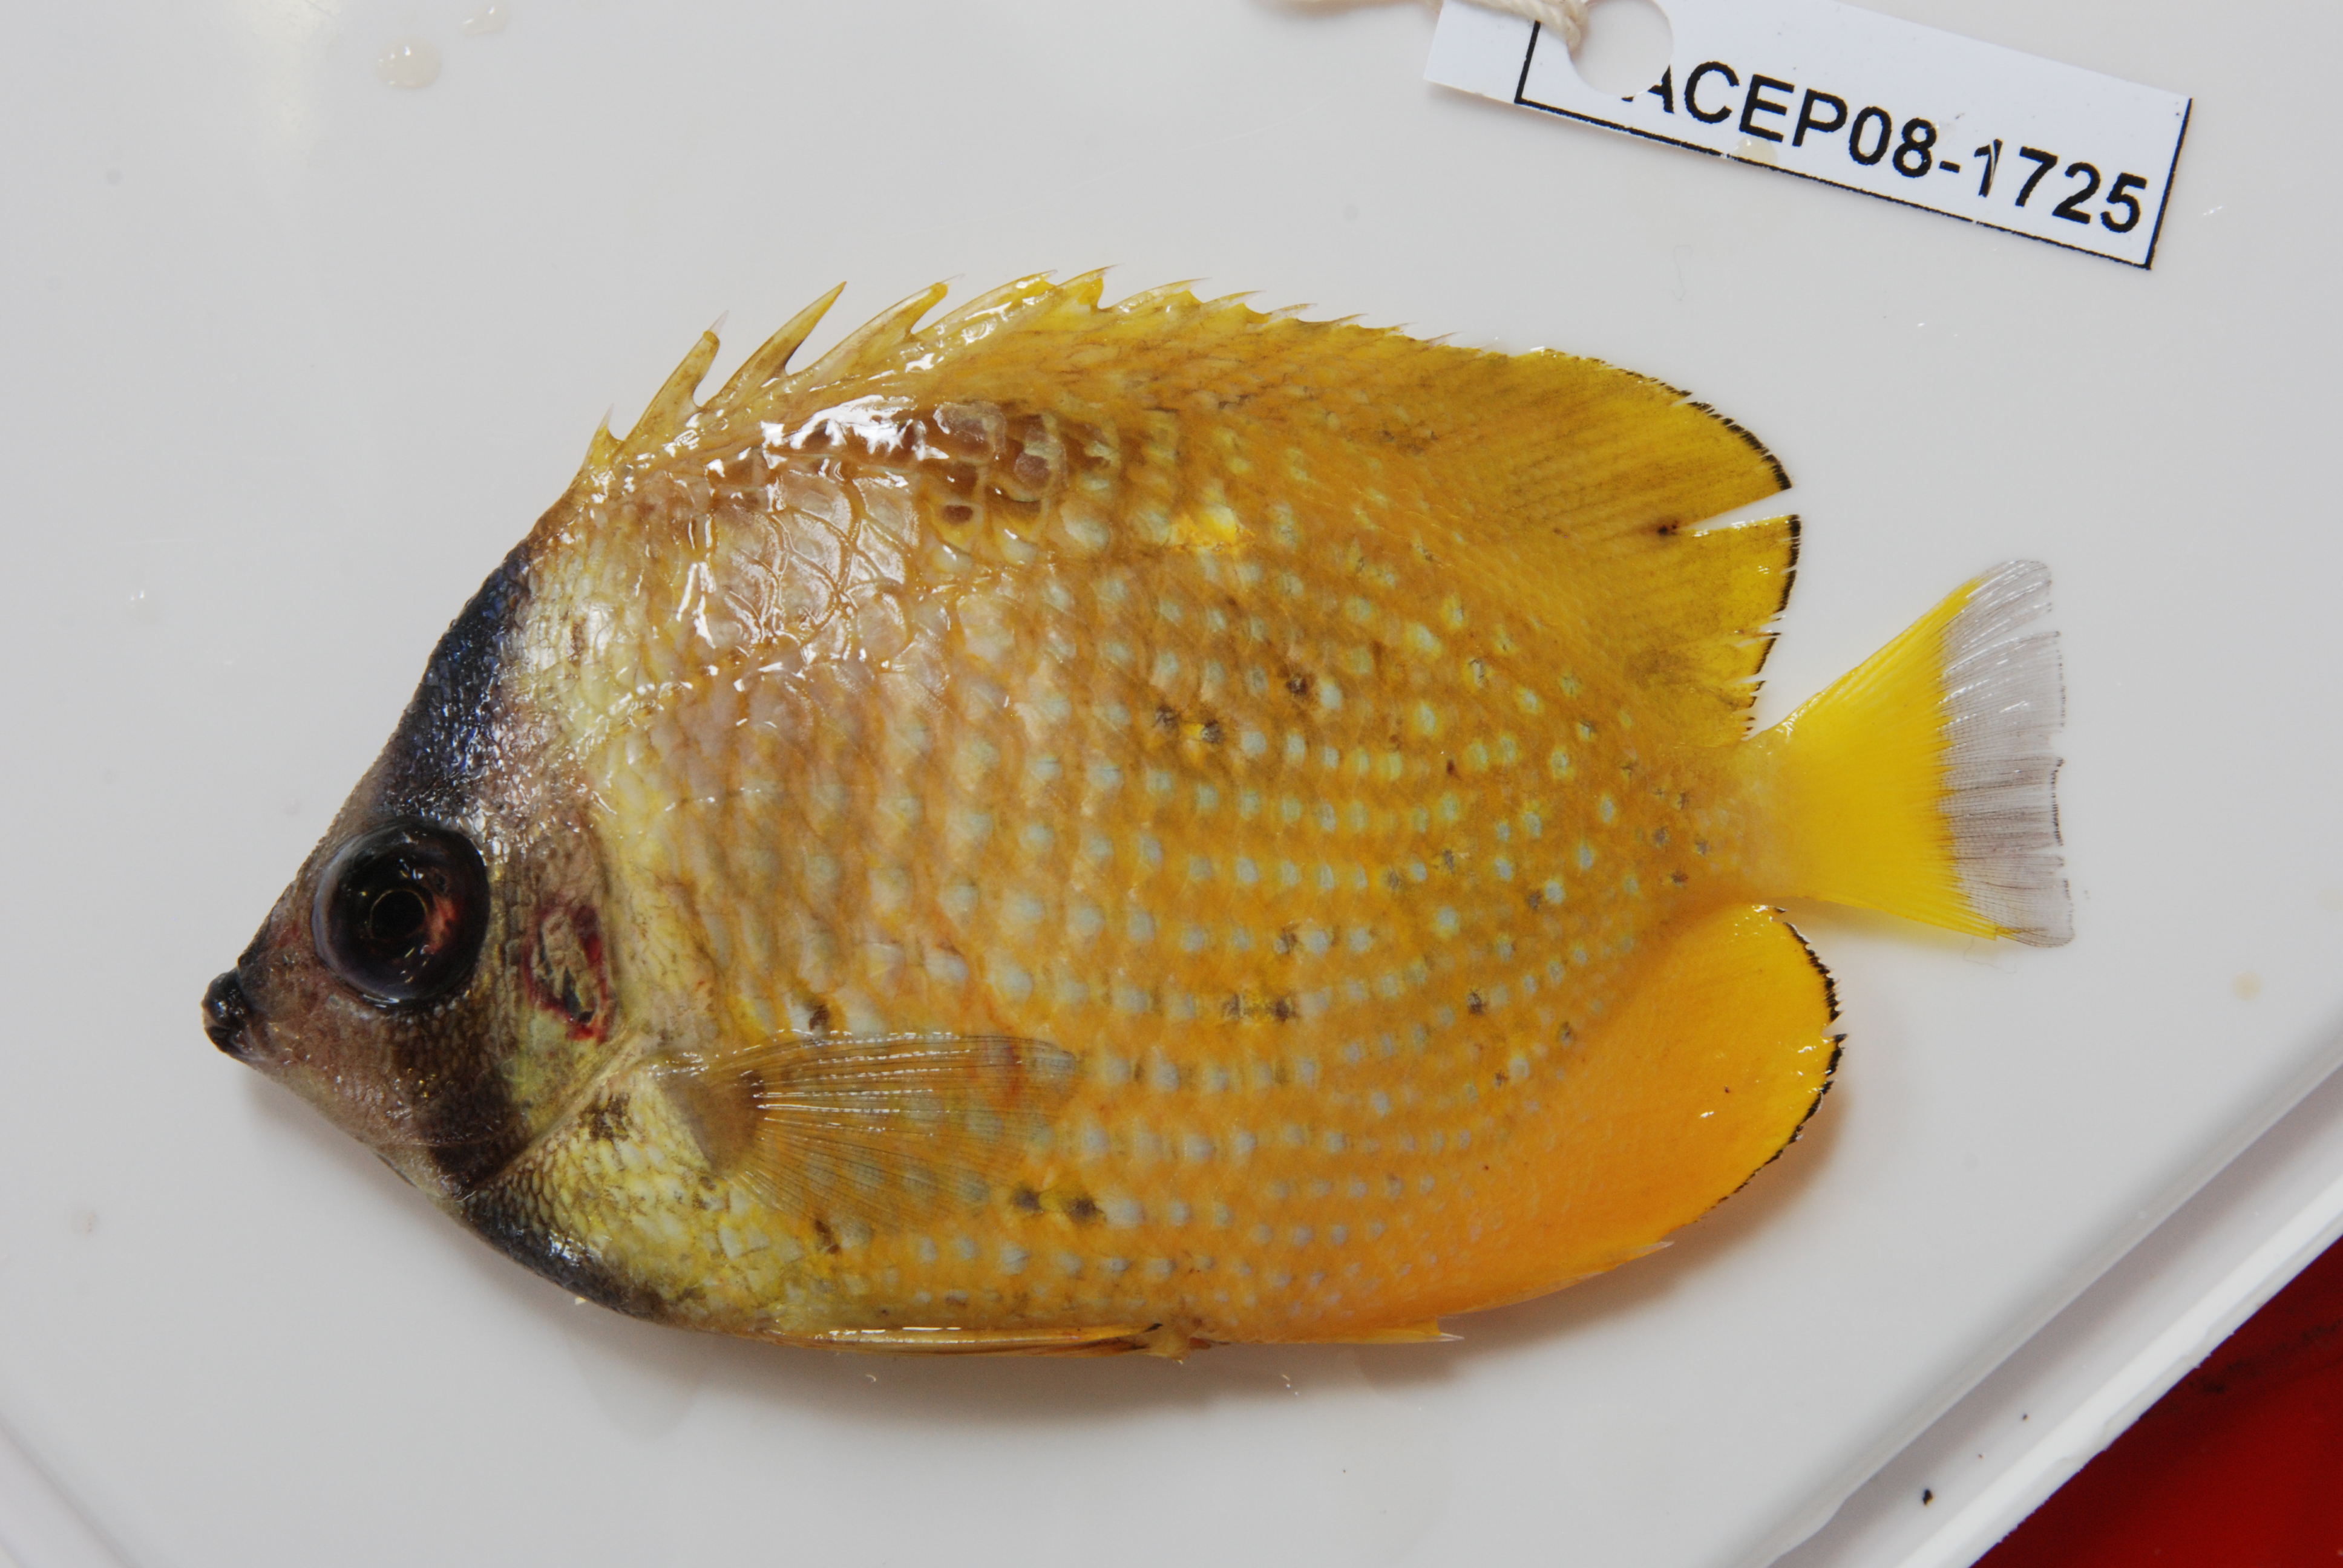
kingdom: Animalia
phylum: Chordata
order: Perciformes
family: Chaetodontidae
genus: Chaetodon
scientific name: Chaetodon kleinii
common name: Klein's butterflyfish
